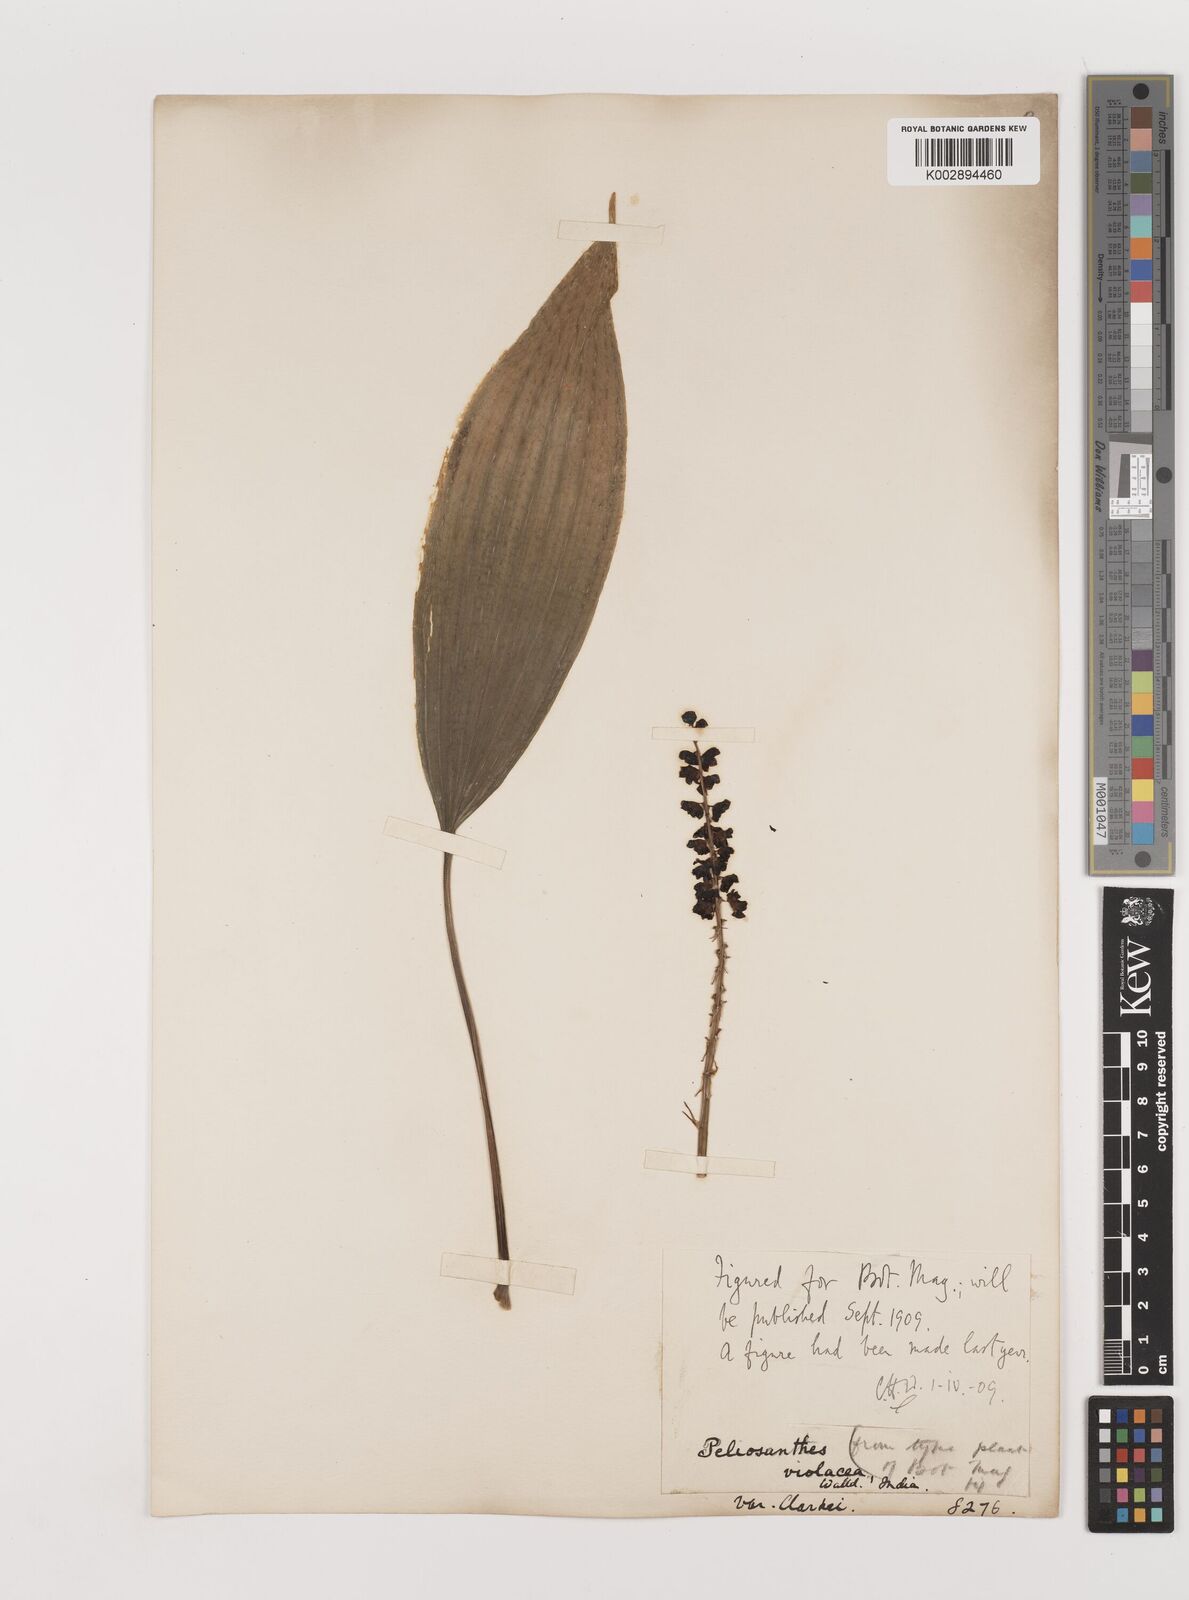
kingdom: Plantae
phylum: Tracheophyta
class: Liliopsida
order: Asparagales
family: Asparagaceae
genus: Peliosanthes
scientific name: Peliosanthes violacea
